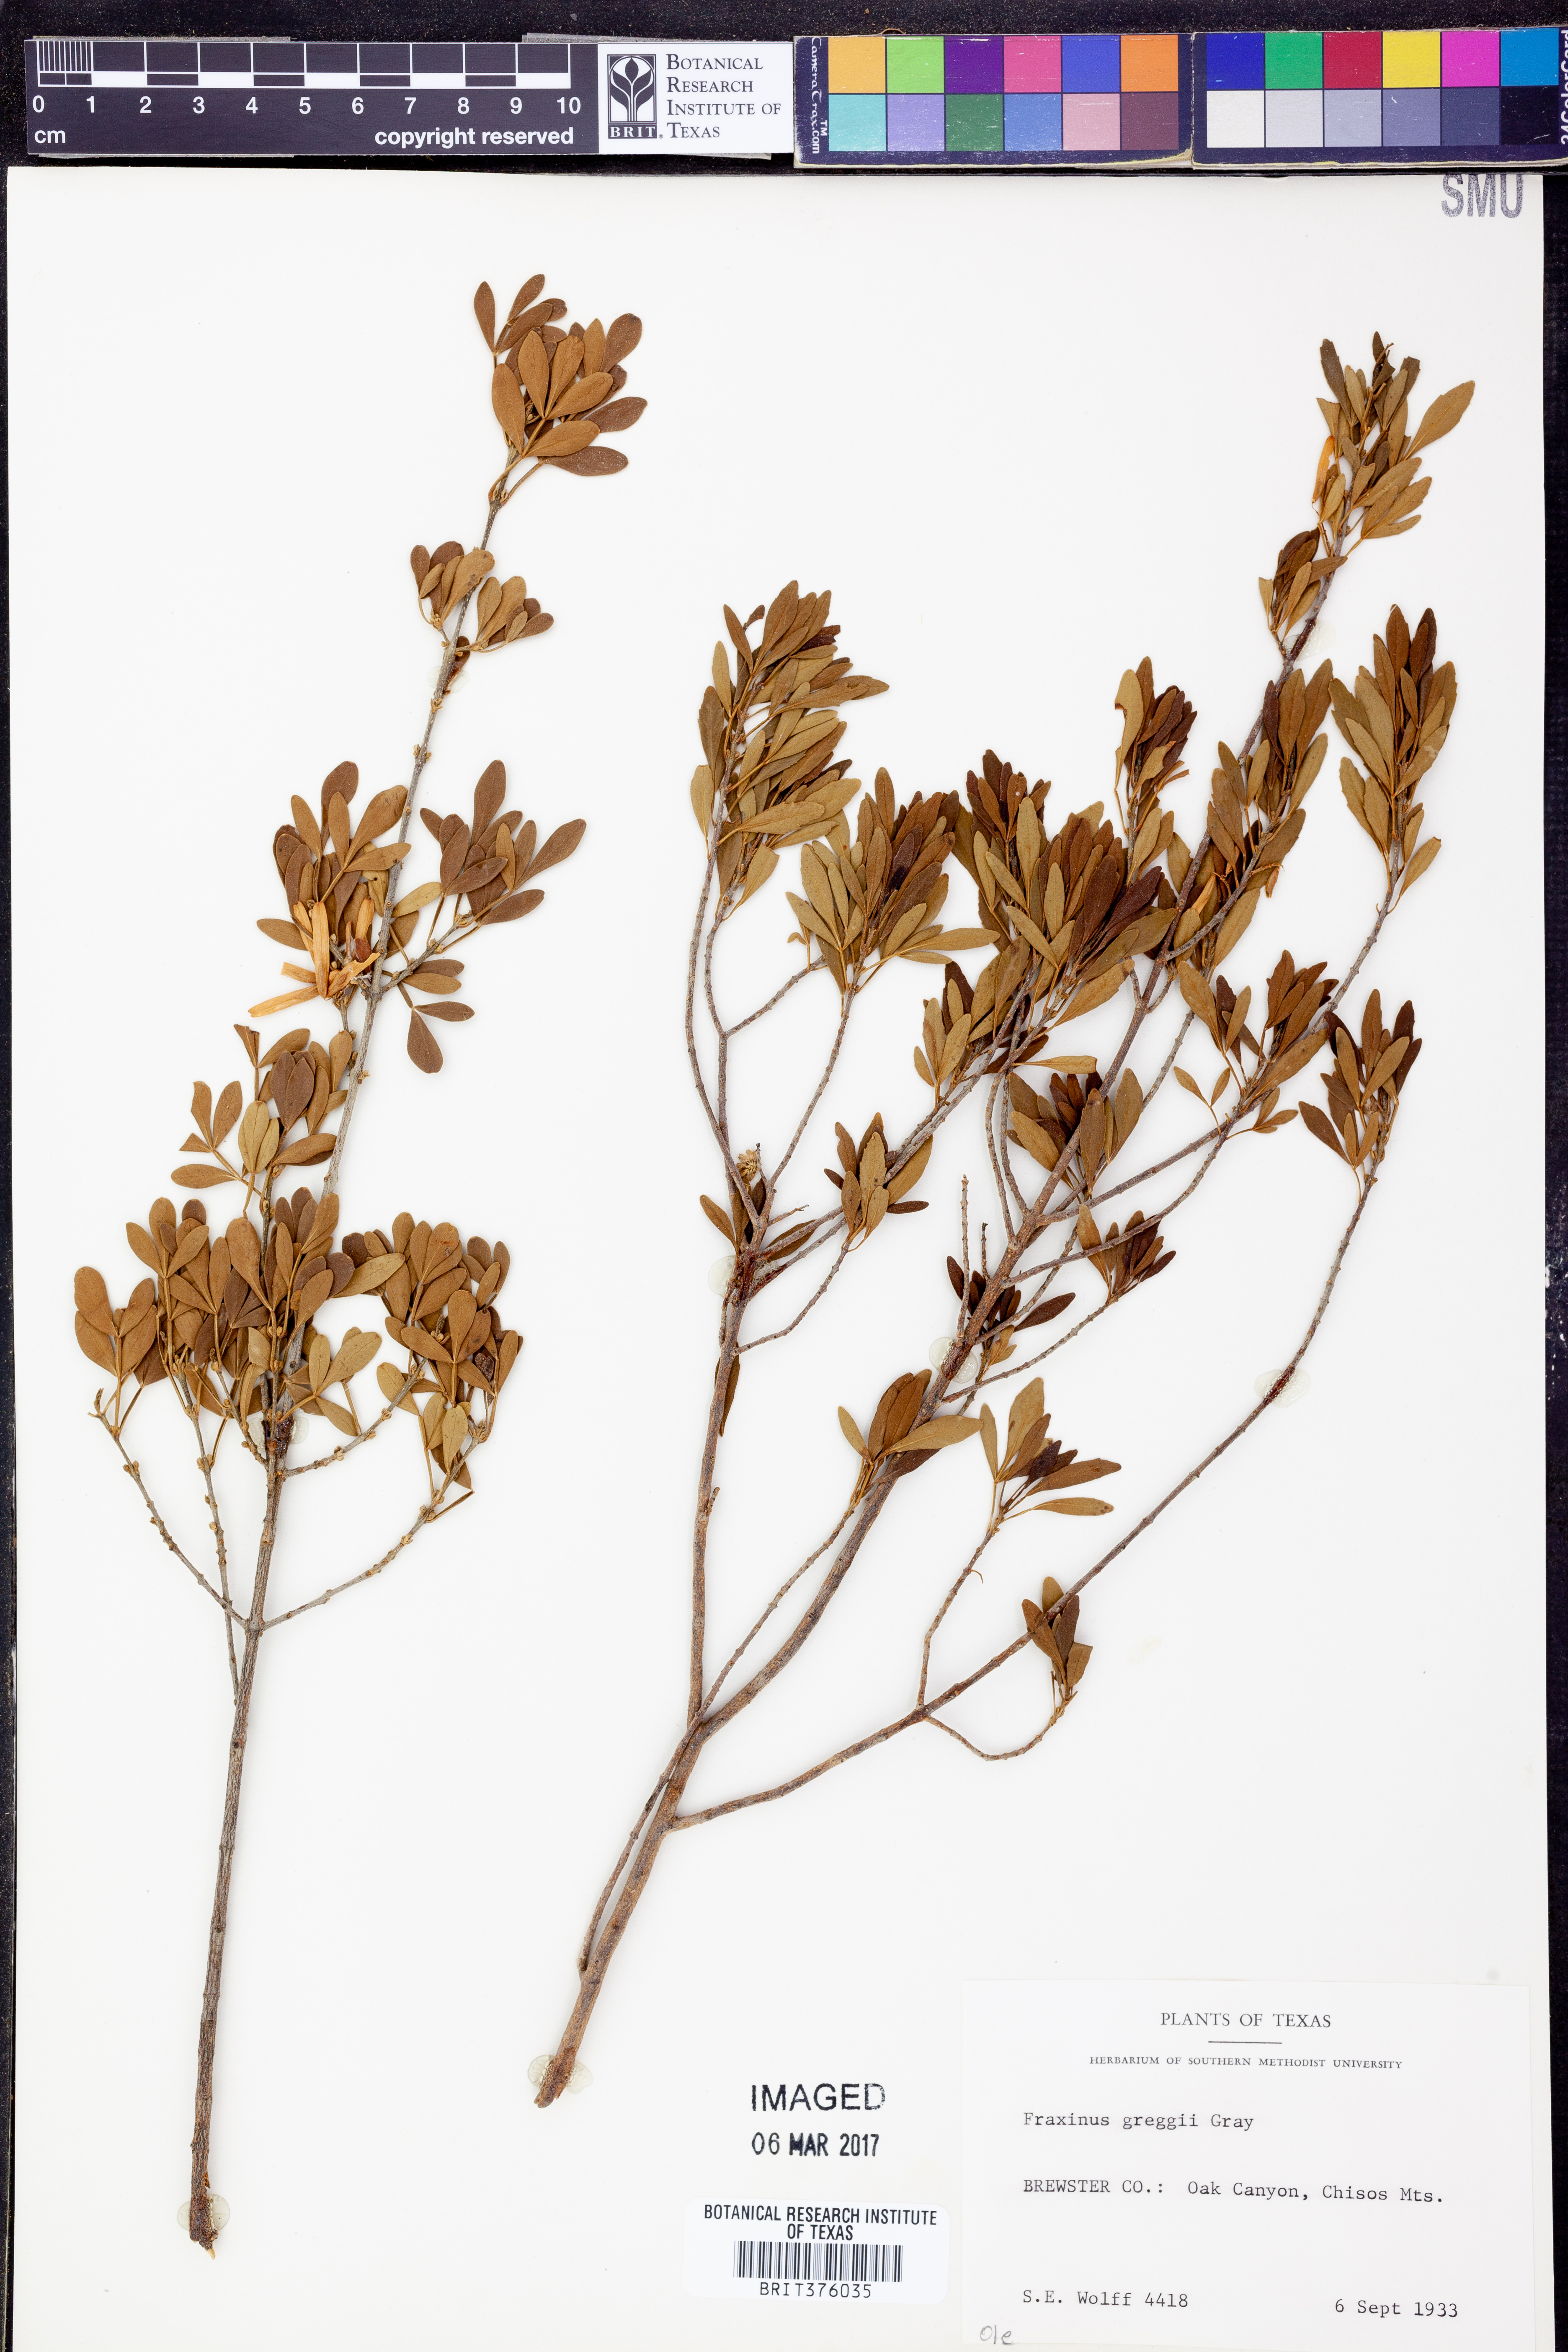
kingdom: Plantae
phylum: Tracheophyta
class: Magnoliopsida
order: Lamiales
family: Oleaceae
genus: Fraxinus
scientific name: Fraxinus greggii
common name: Gregg ash
